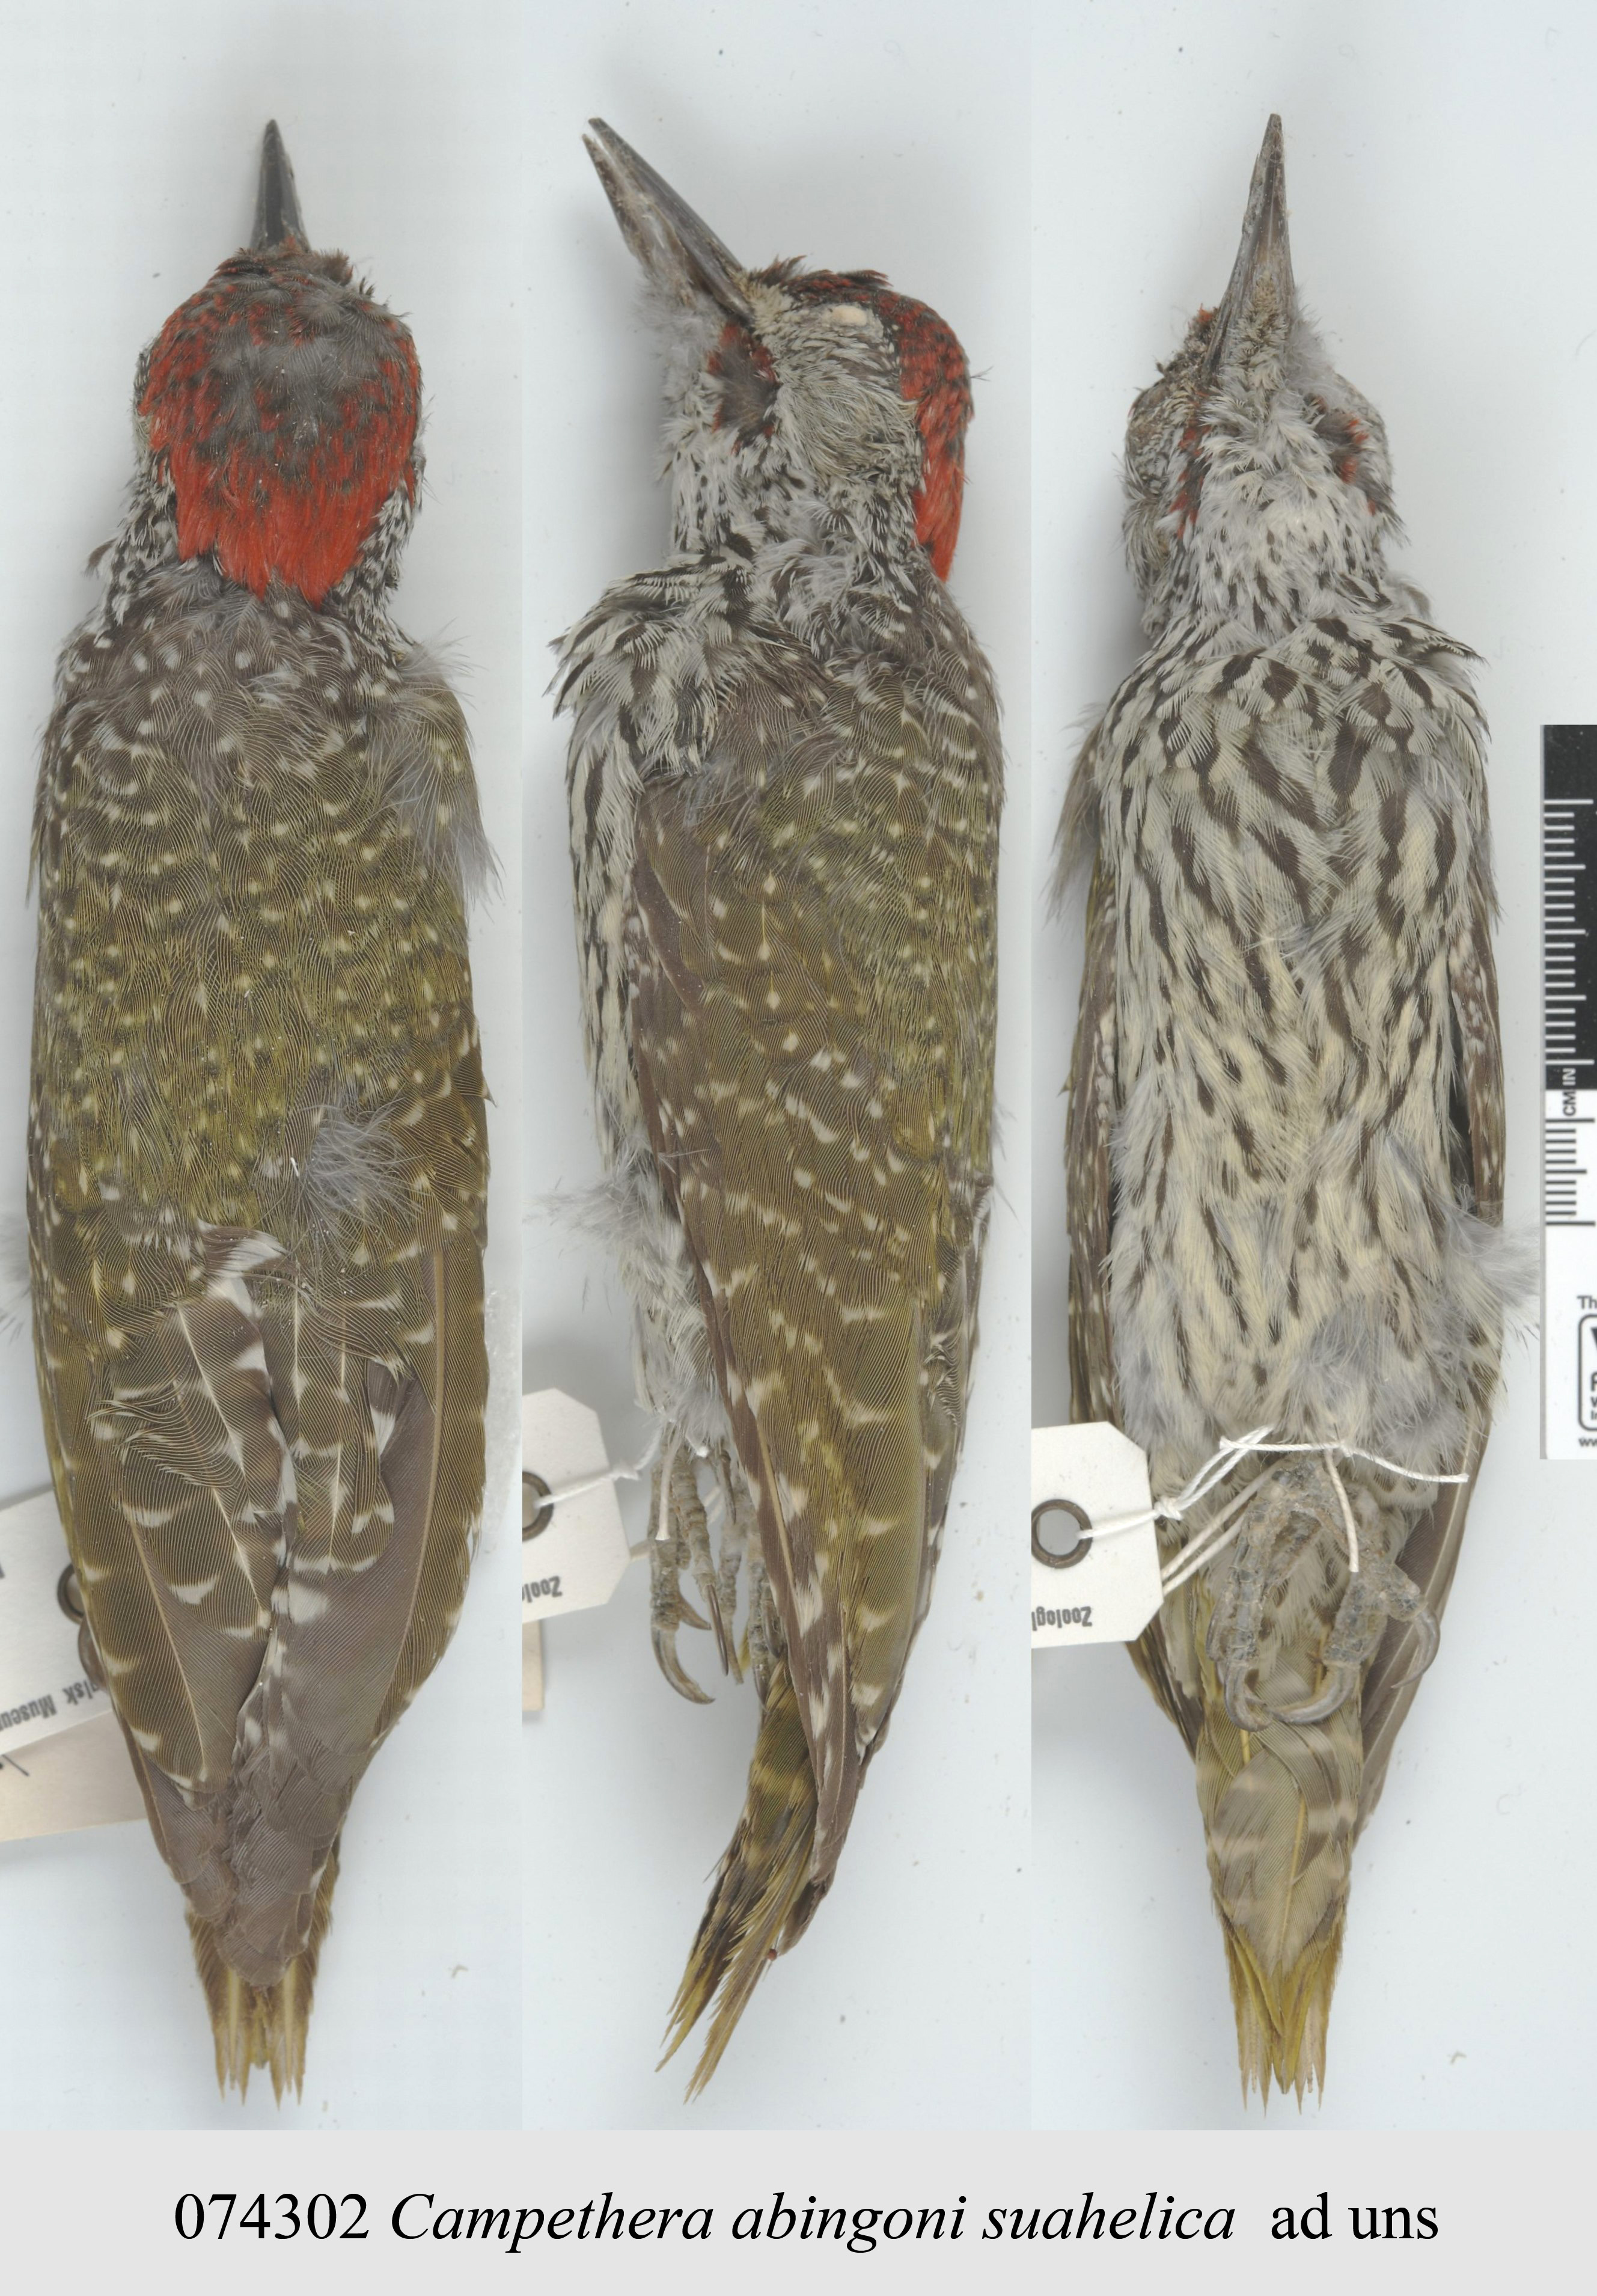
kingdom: Animalia
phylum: Chordata
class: Aves
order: Piciformes
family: Picidae
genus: Campethera
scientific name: Campethera abingoni
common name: Golden-tailed woodpecker
